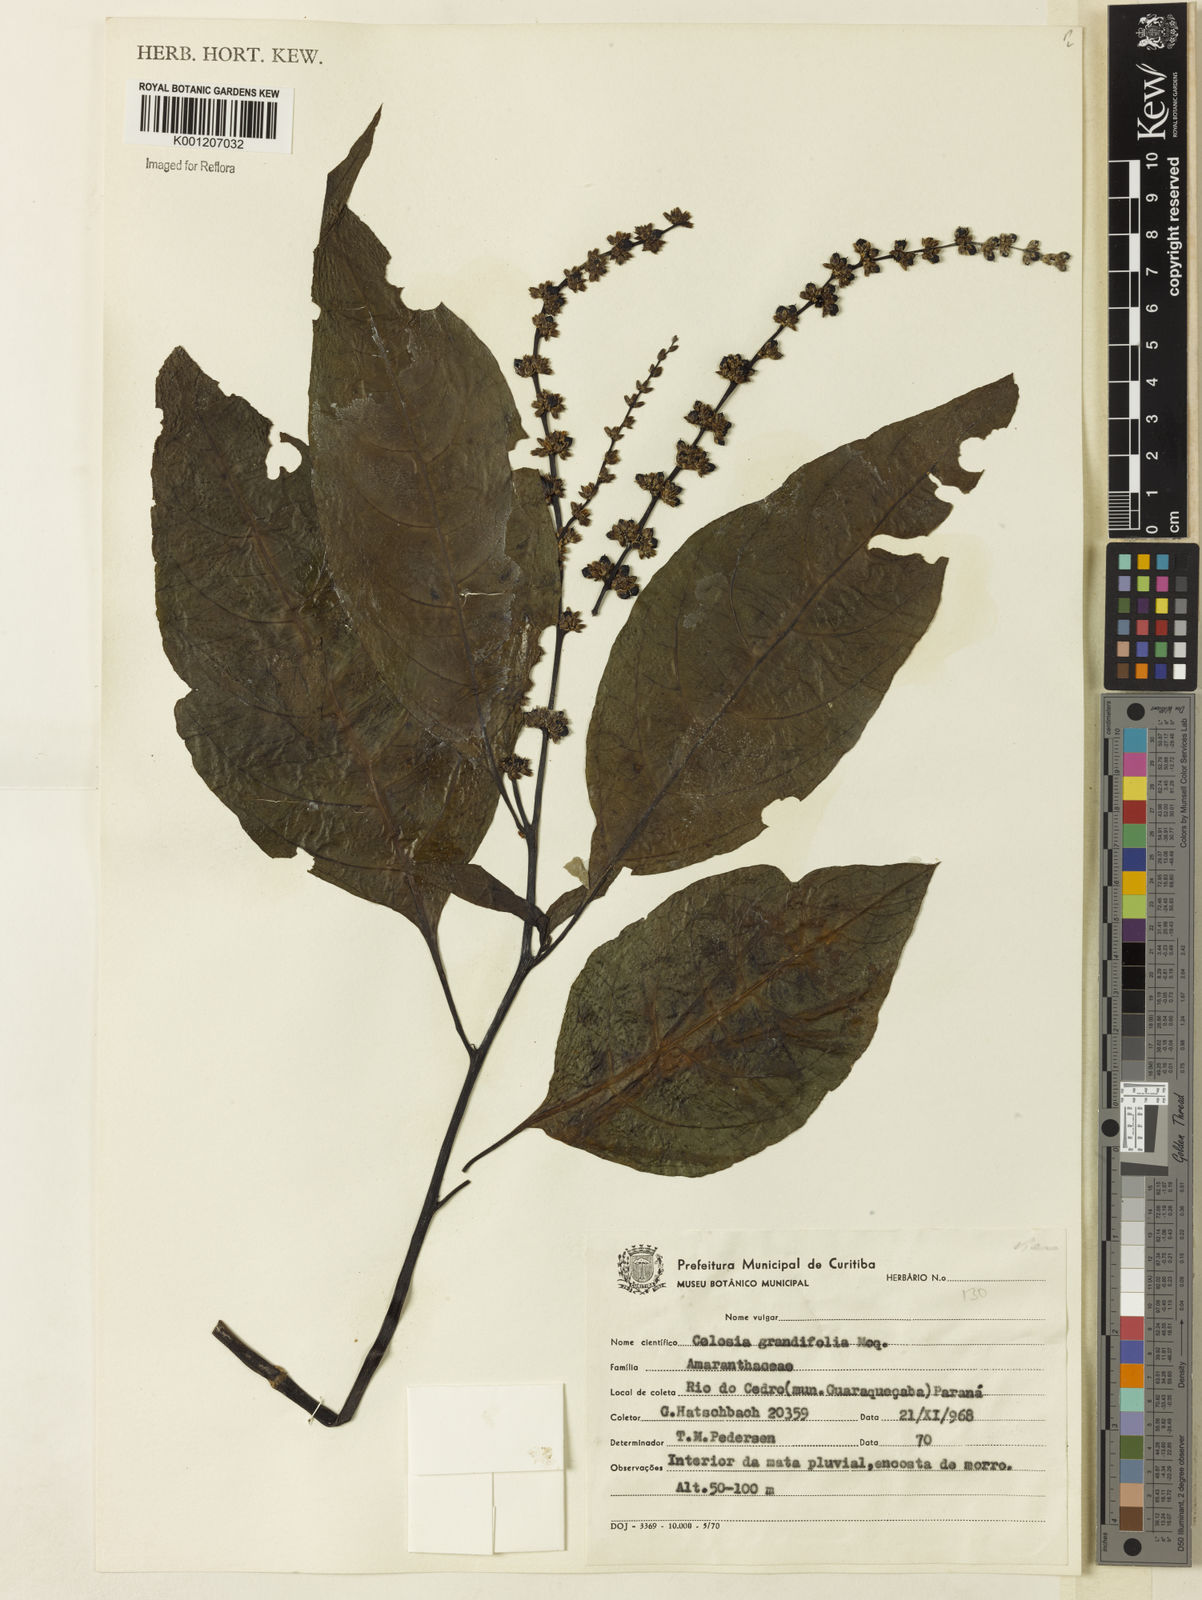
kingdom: Plantae
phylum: Tracheophyta
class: Magnoliopsida
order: Caryophyllales
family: Amaranthaceae
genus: Celosia
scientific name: Celosia grandifolia
